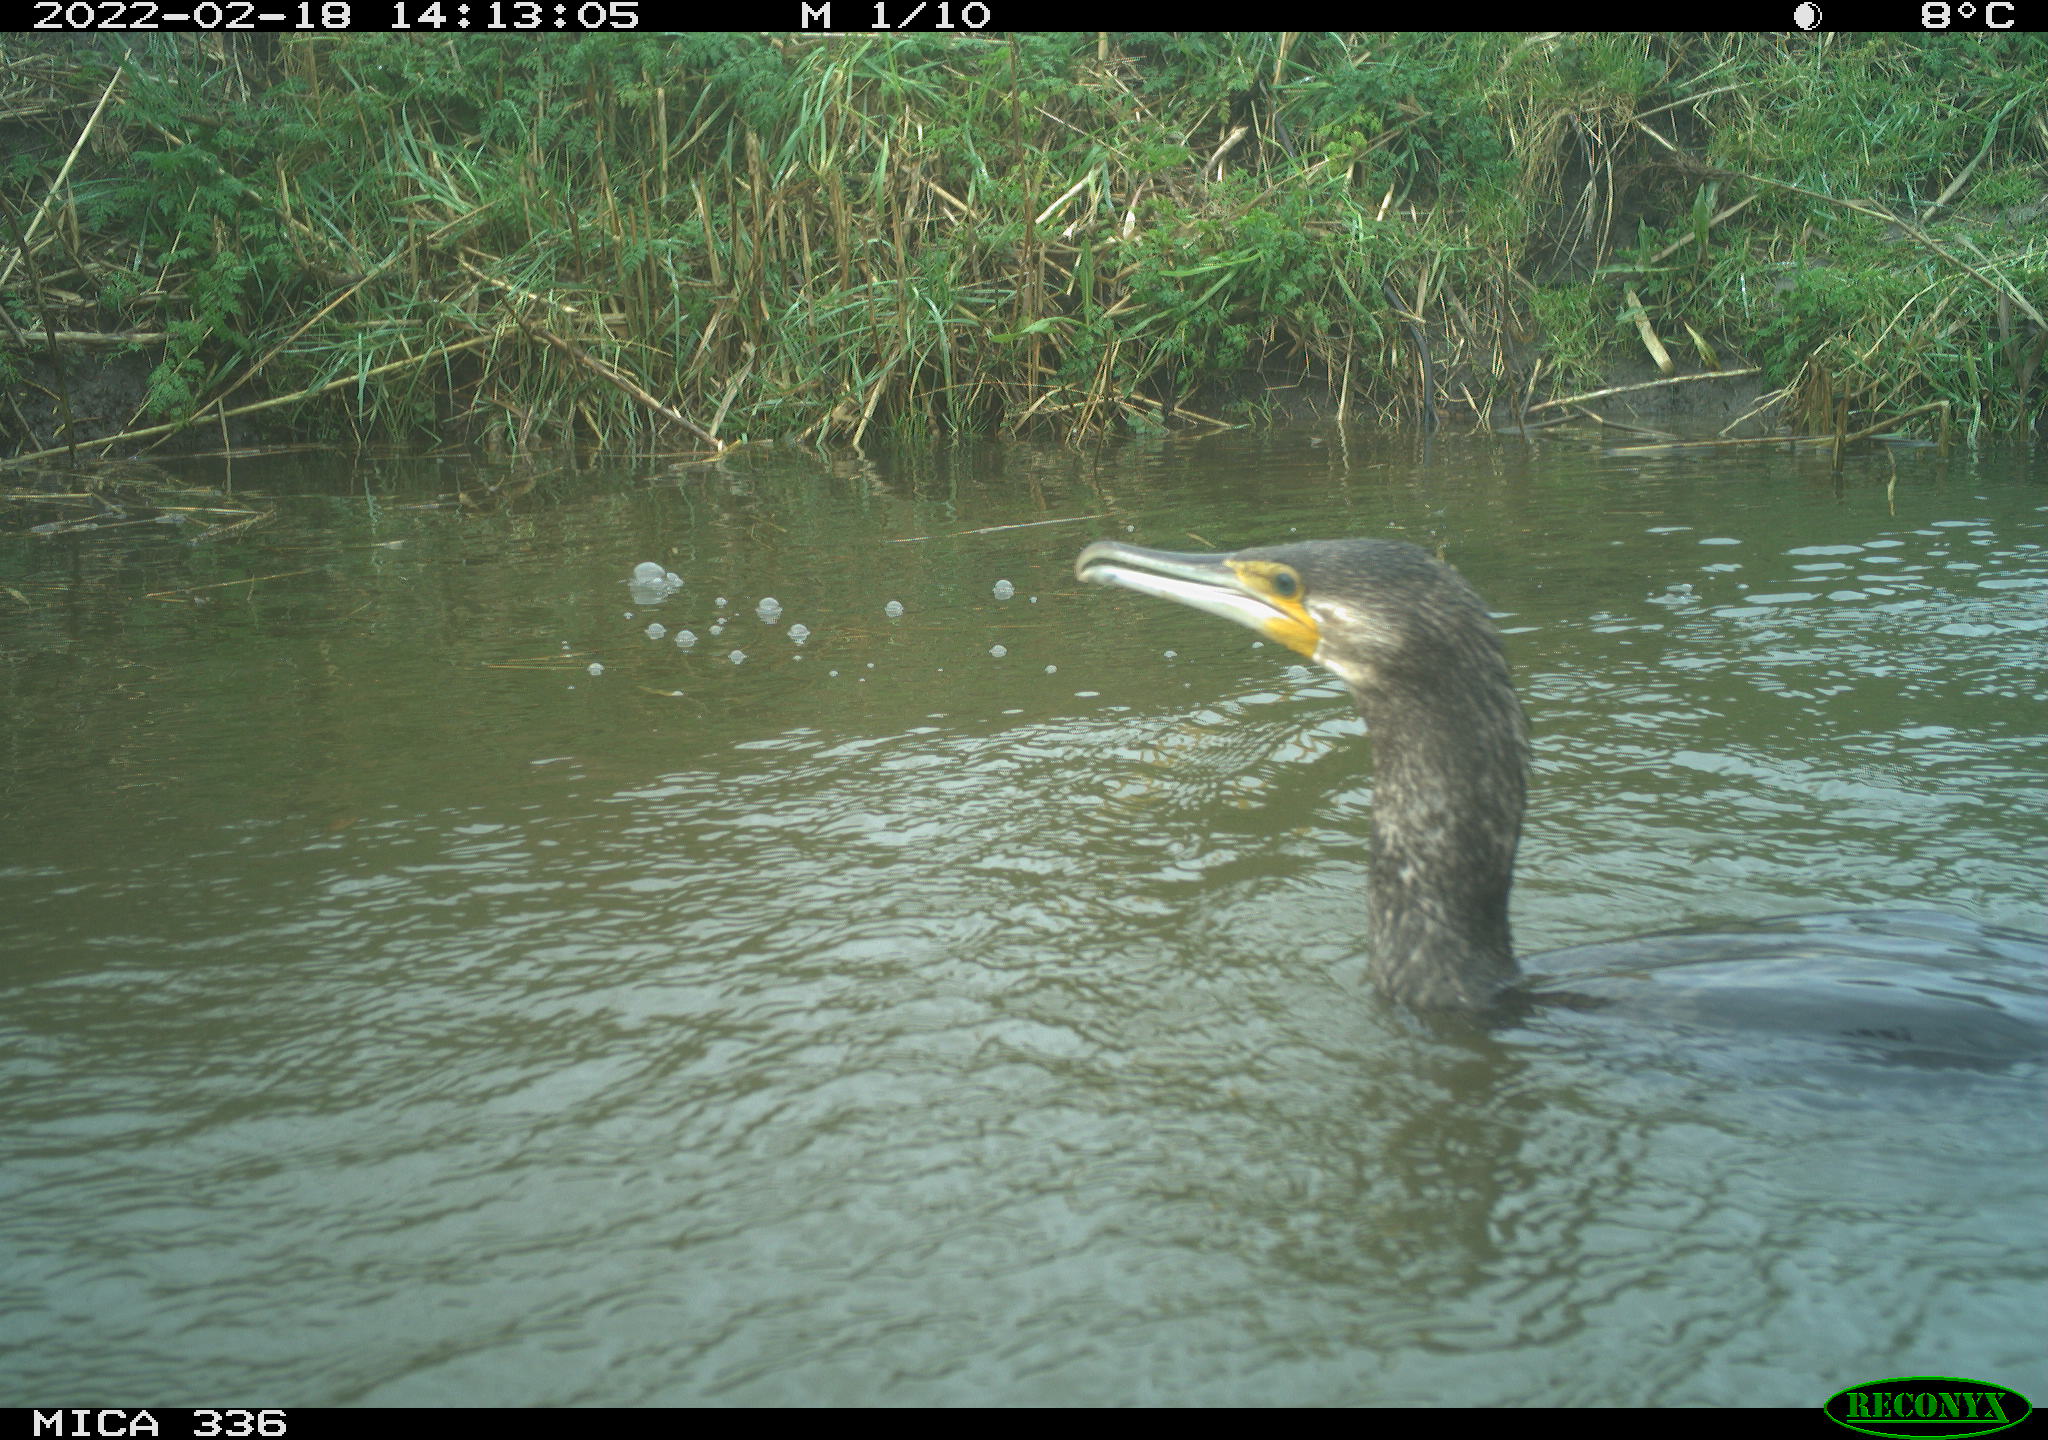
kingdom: Animalia
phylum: Chordata
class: Aves
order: Suliformes
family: Phalacrocoracidae
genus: Phalacrocorax
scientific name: Phalacrocorax carbo
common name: Great cormorant
